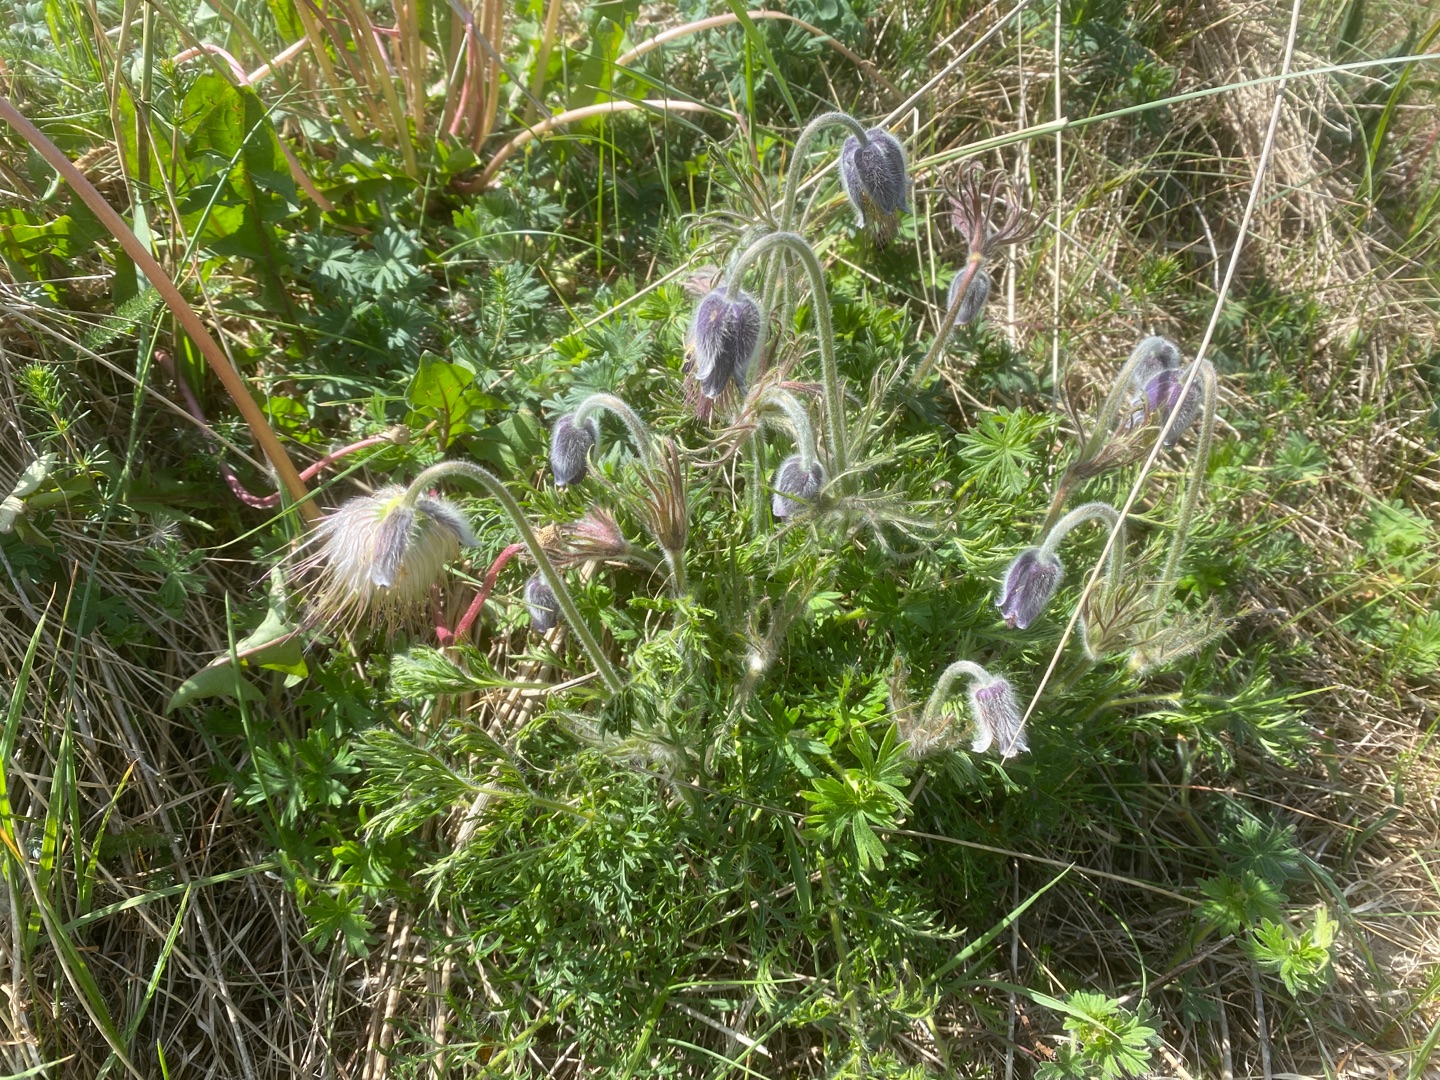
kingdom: Plantae
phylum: Tracheophyta
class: Magnoliopsida
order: Ranunculales
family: Ranunculaceae
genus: Pulsatilla
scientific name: Pulsatilla pratensis
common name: Nikkende kobjælde
